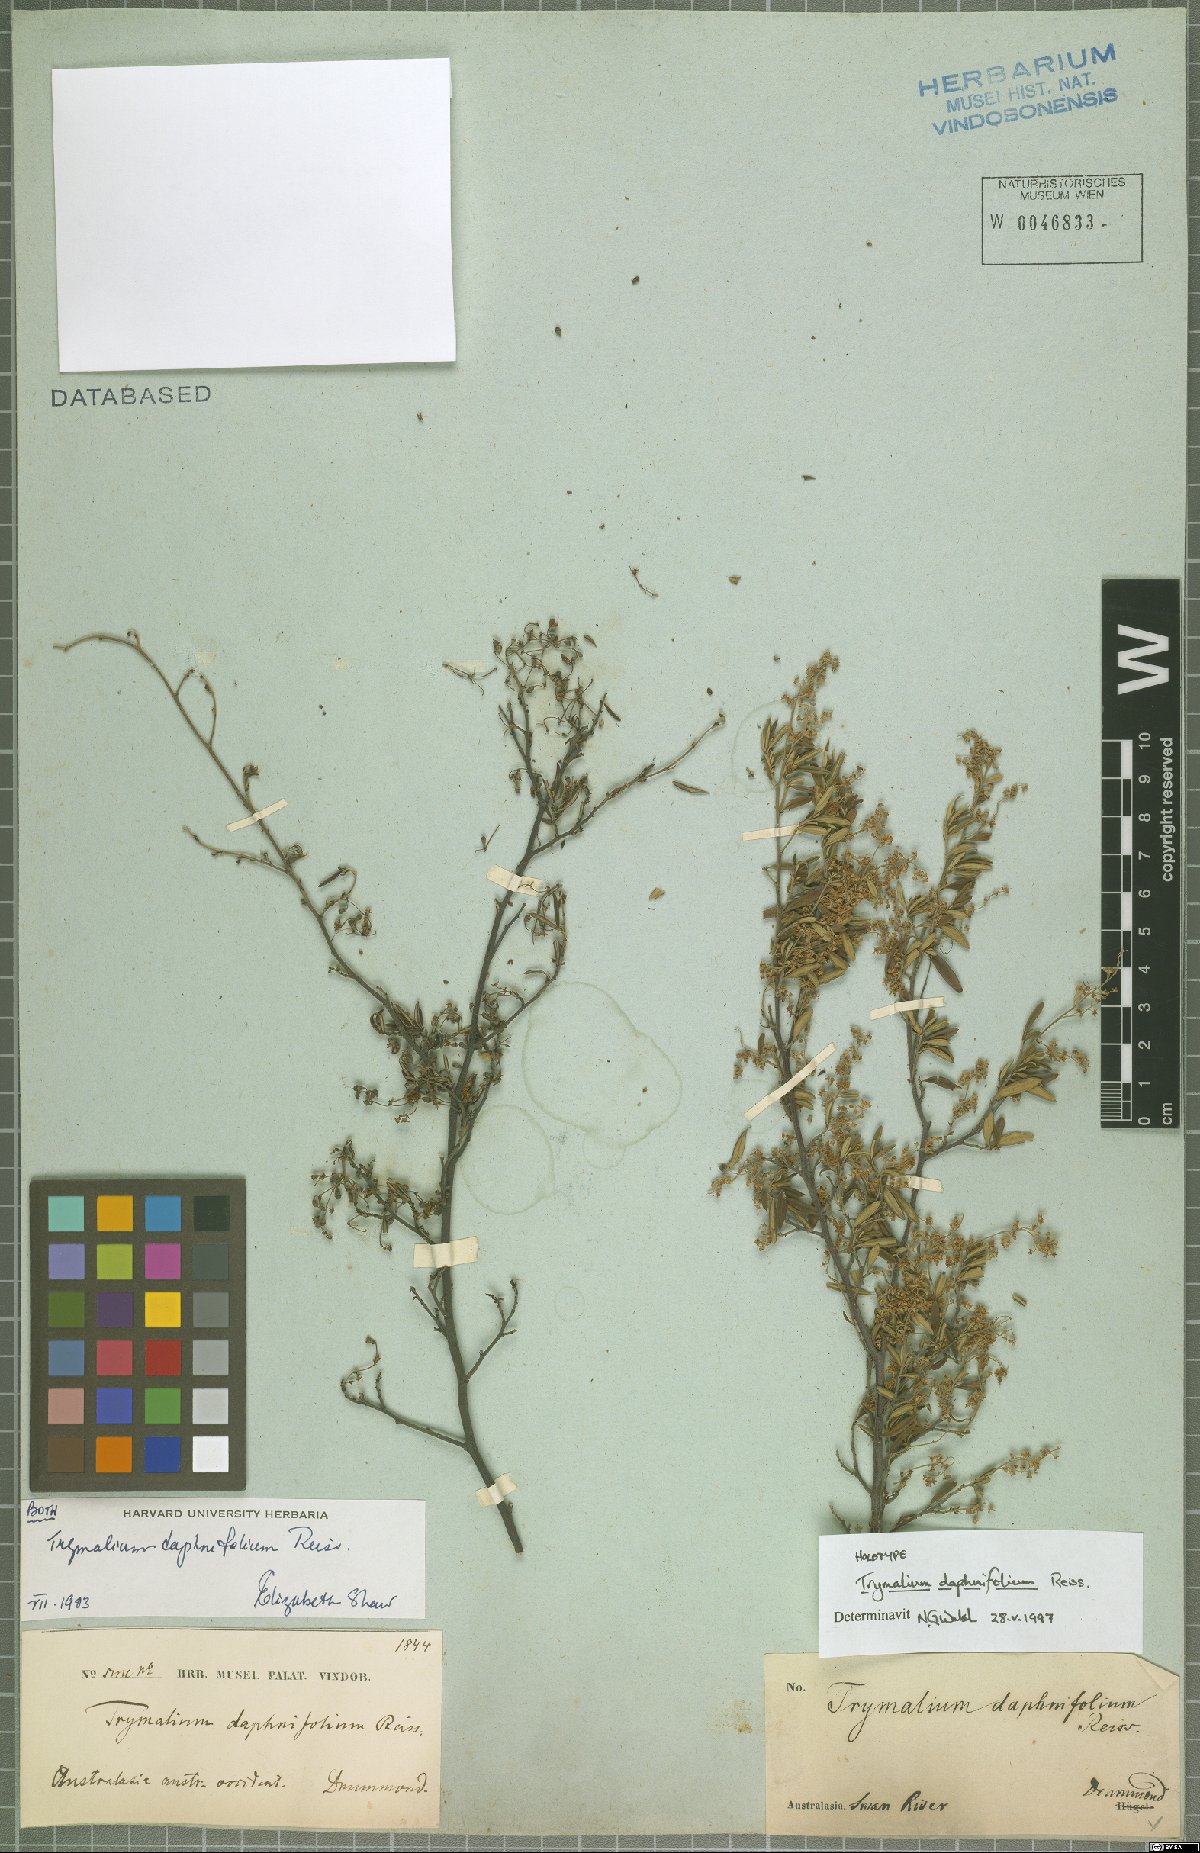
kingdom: Plantae
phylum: Tracheophyta
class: Magnoliopsida
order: Rosales
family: Rhamnaceae
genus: Trymalium
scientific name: Trymalium daphnifolium
